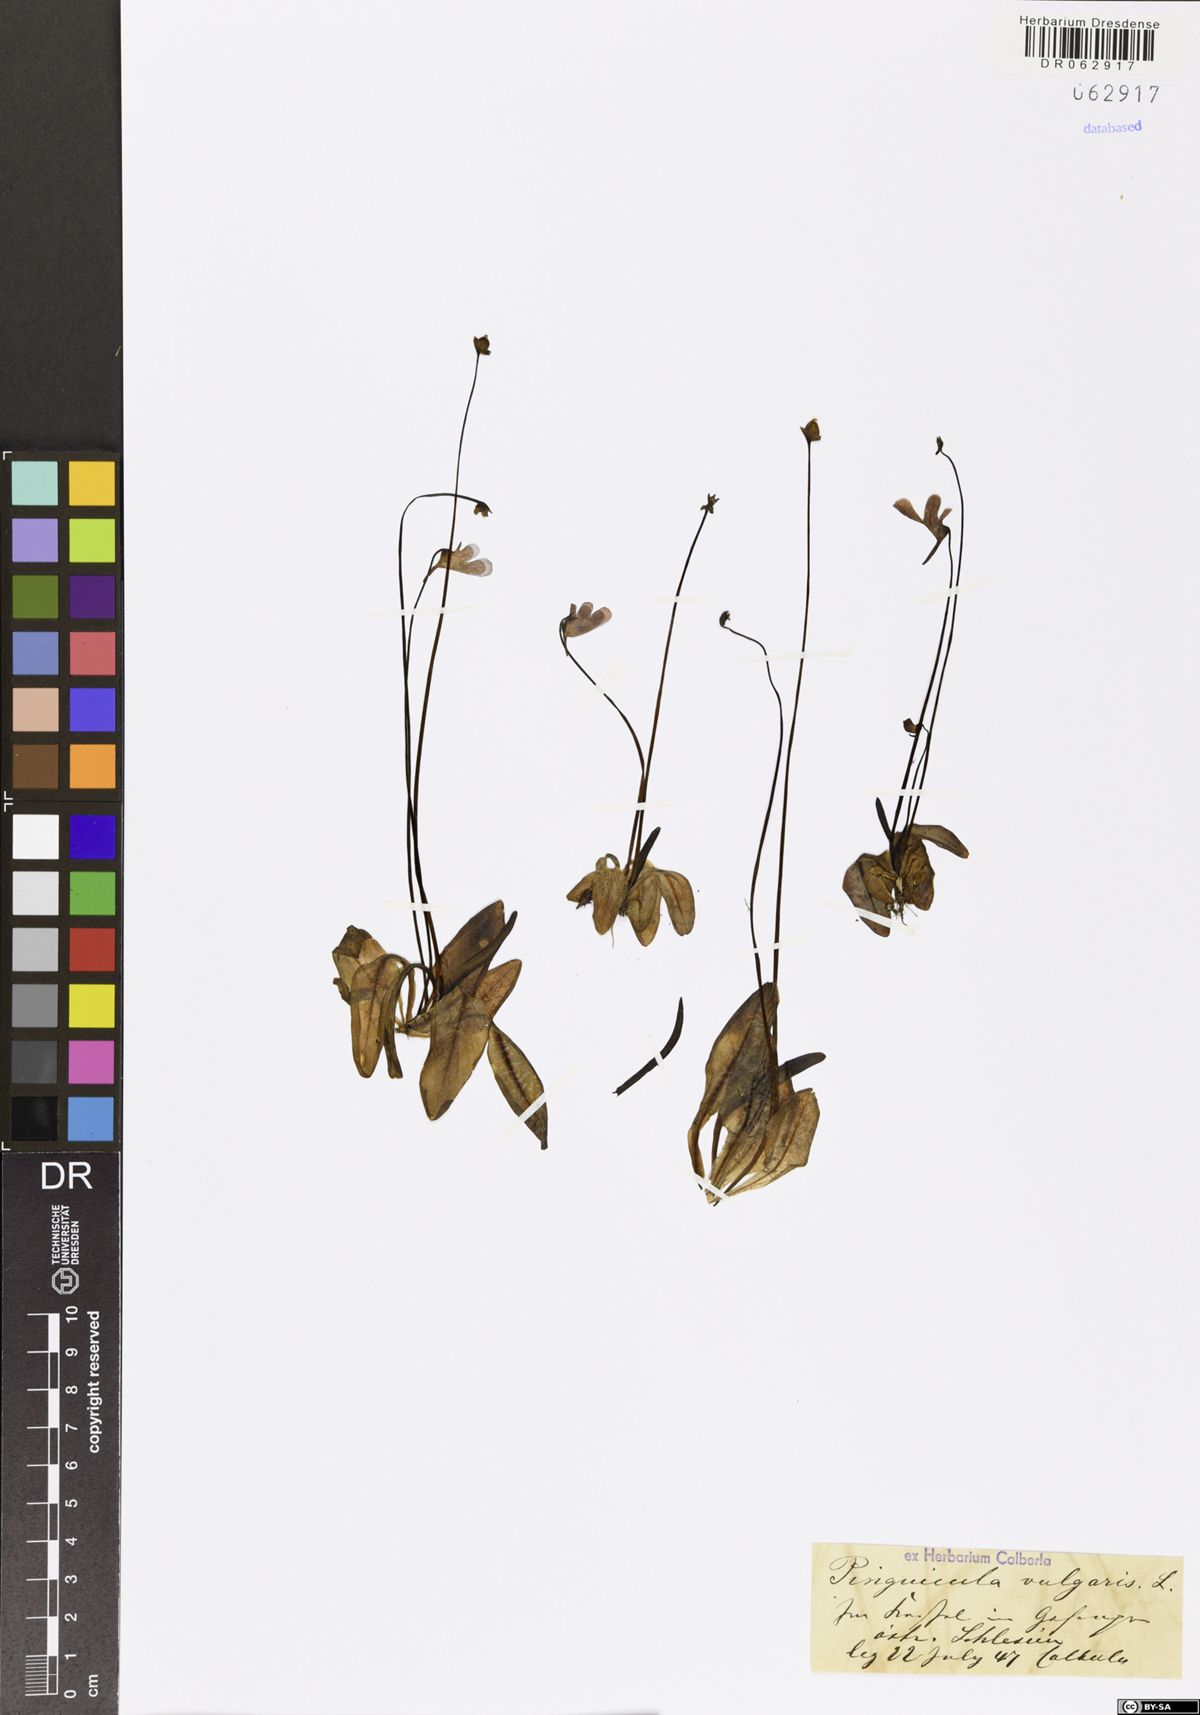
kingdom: Plantae
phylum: Tracheophyta
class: Magnoliopsida
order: Lamiales
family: Lentibulariaceae
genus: Pinguicula
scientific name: Pinguicula vulgaris
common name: Common butterwort
